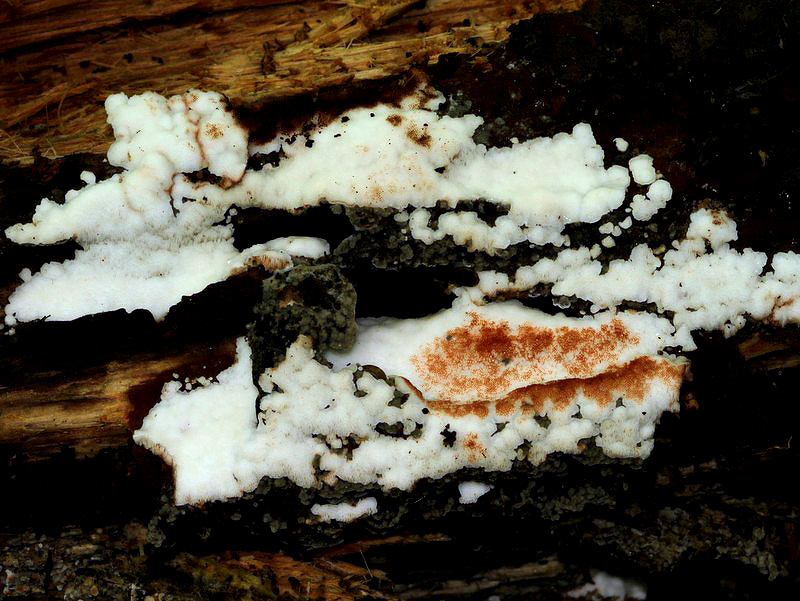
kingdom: Fungi
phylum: Basidiomycota
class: Agaricomycetes
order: Polyporales
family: Meripilaceae
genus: Rigidoporus
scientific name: Rigidoporus sanguinolentus
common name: blod-skorpeporesvamp
